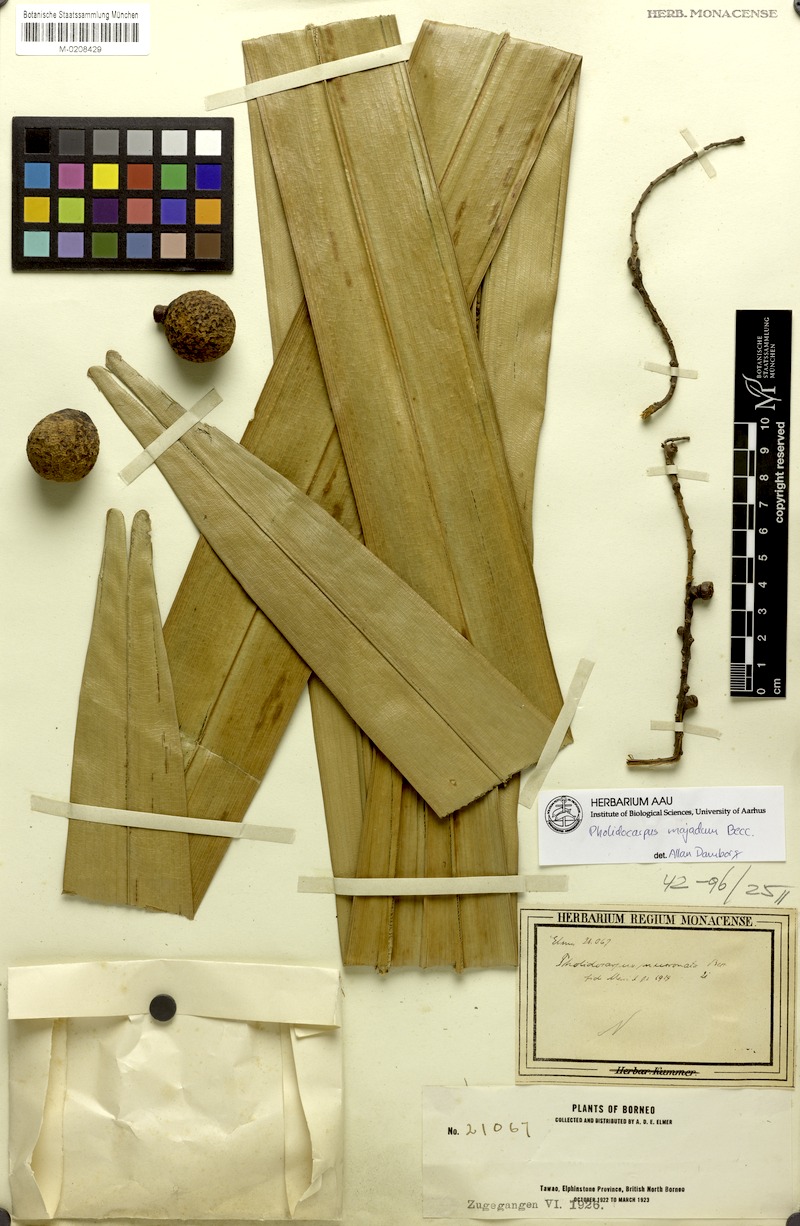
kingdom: Plantae
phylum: Tracheophyta
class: Liliopsida
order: Arecales
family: Arecaceae
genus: Pholidocarpus
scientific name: Pholidocarpus majadum
